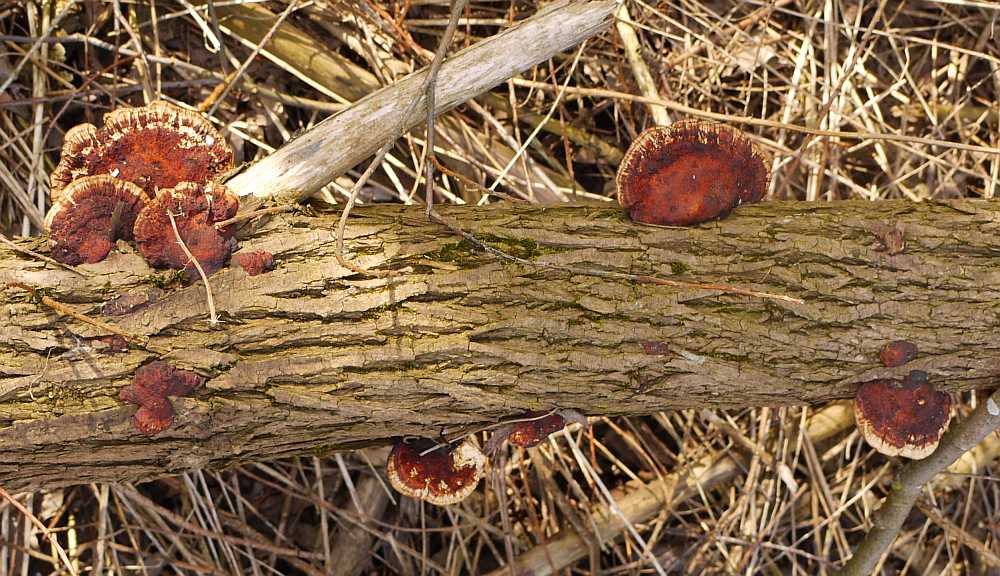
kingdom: Fungi
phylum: Basidiomycota
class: Agaricomycetes
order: Polyporales
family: Polyporaceae
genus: Daedaleopsis
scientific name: Daedaleopsis confragosa
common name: rødmende læderporesvamp
